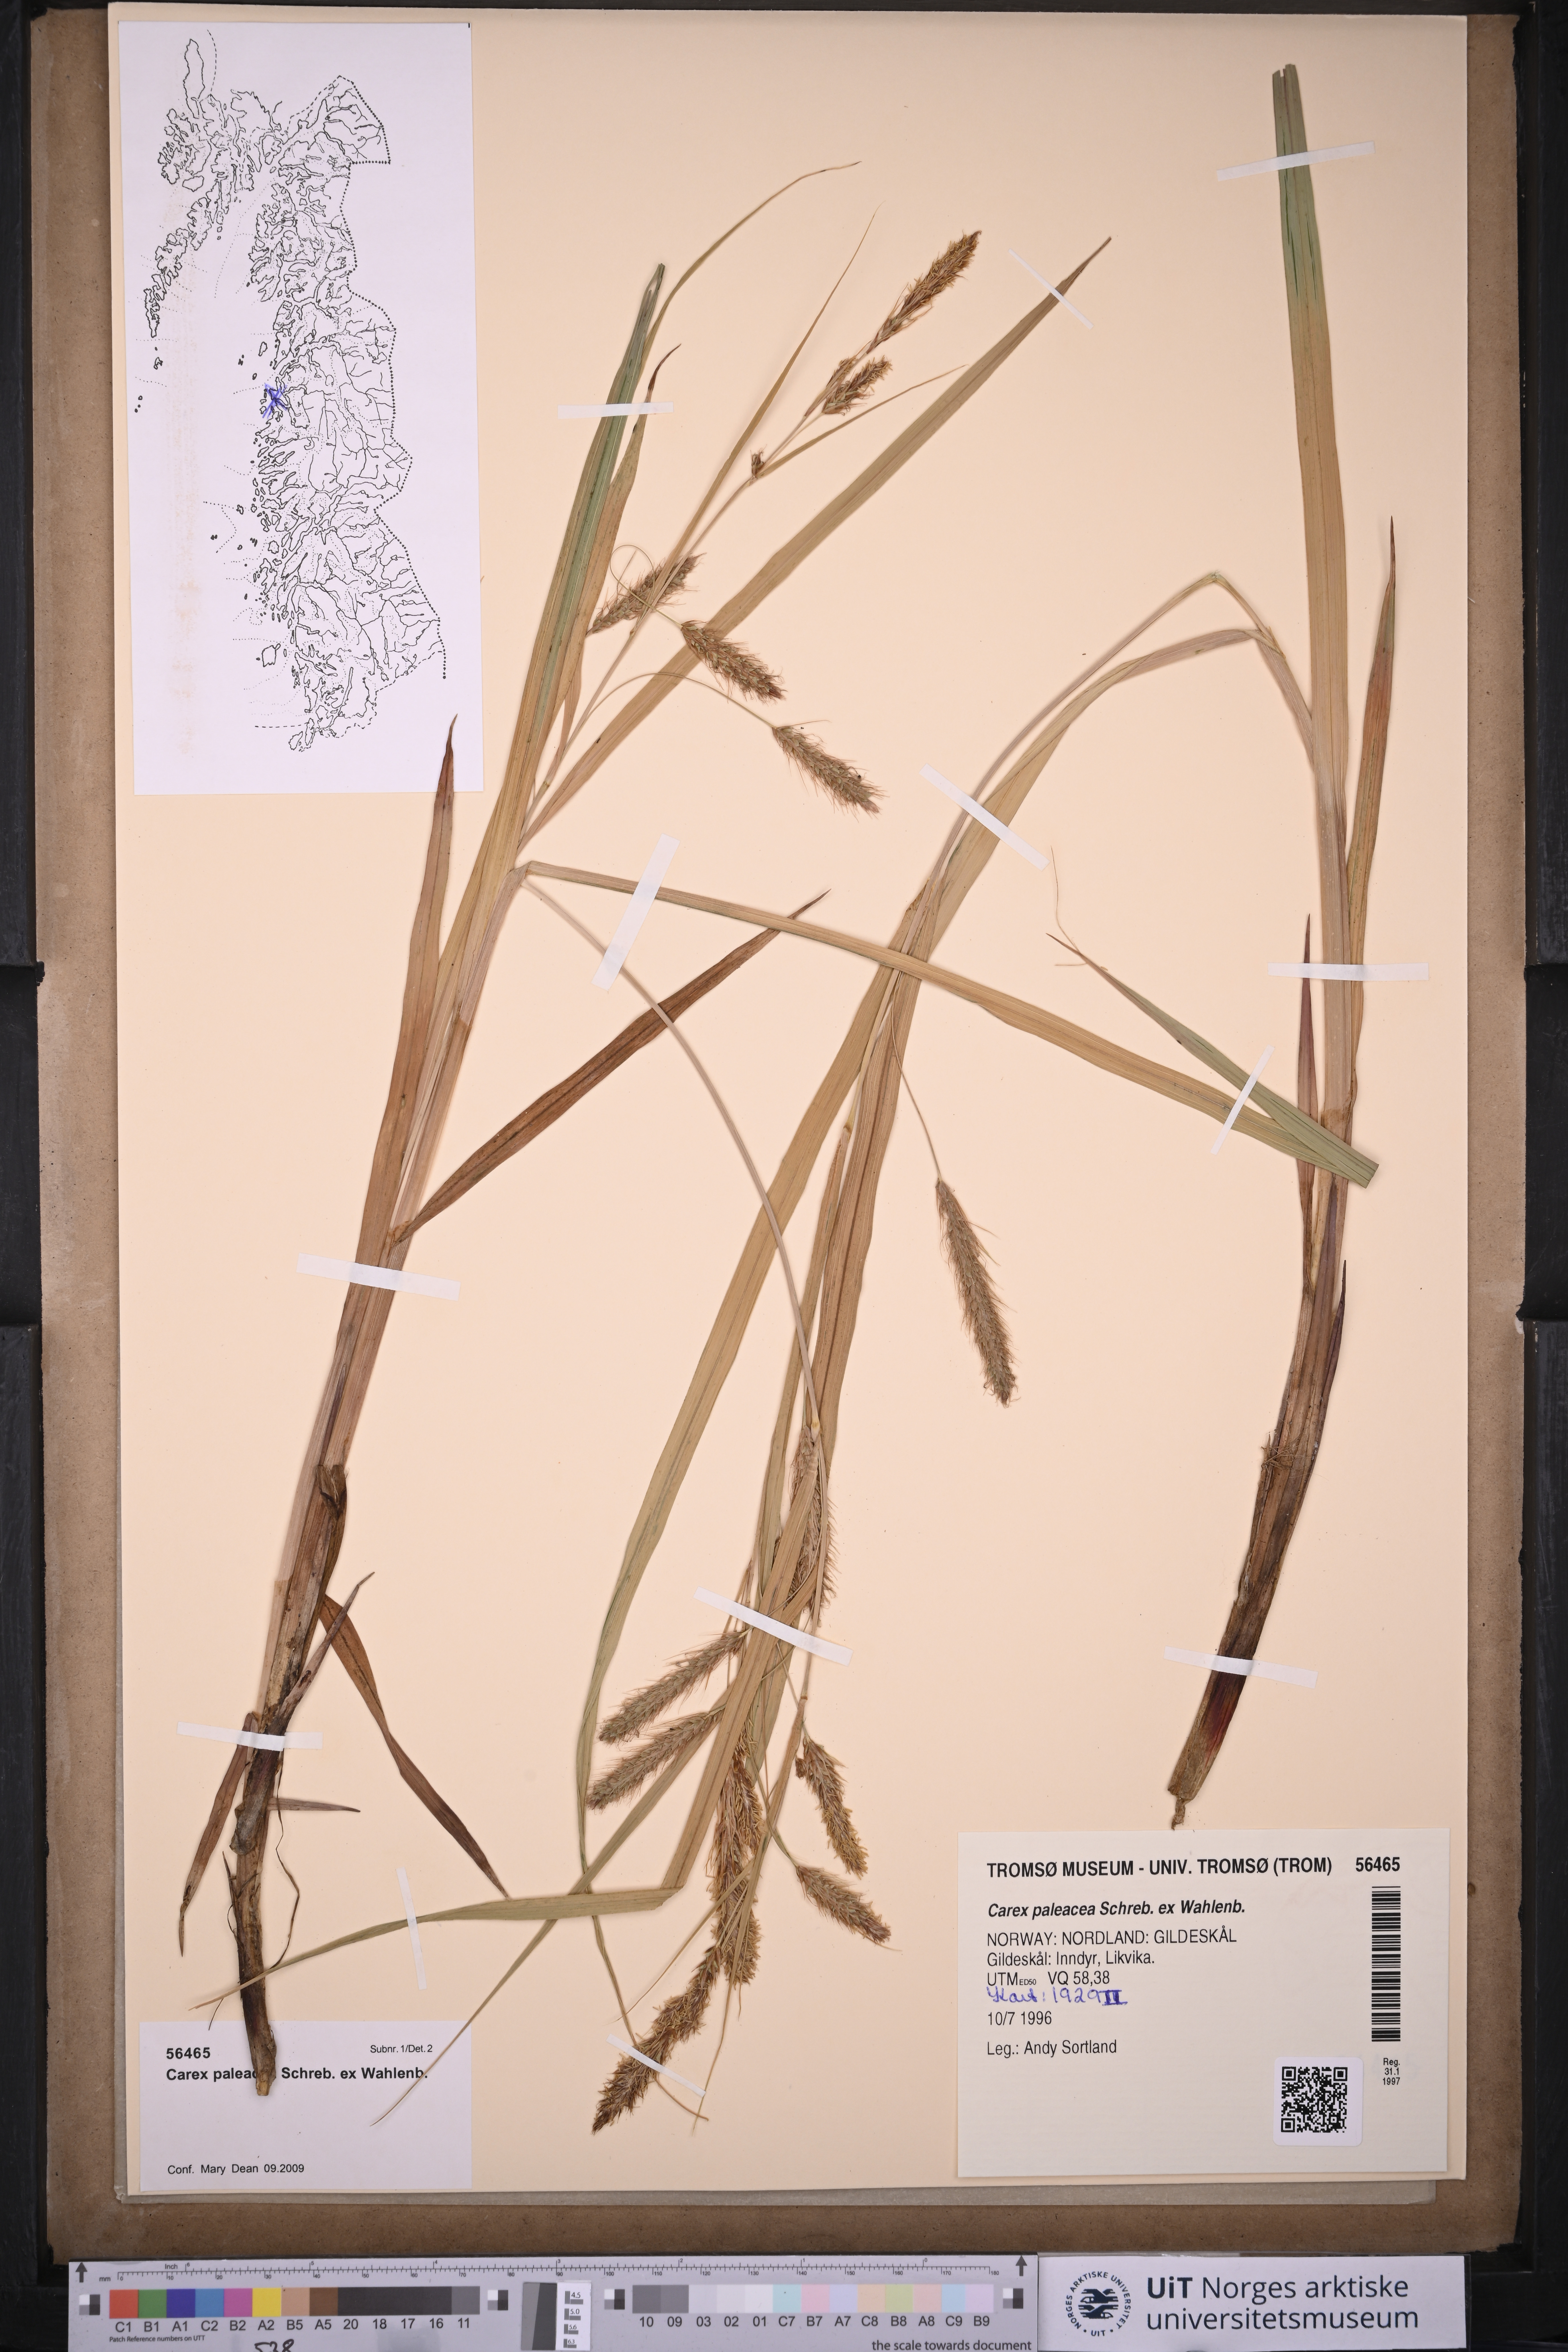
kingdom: Plantae
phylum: Tracheophyta
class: Liliopsida
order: Poales
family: Cyperaceae
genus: Carex
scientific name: Carex paleacea
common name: Chaffy sedge
